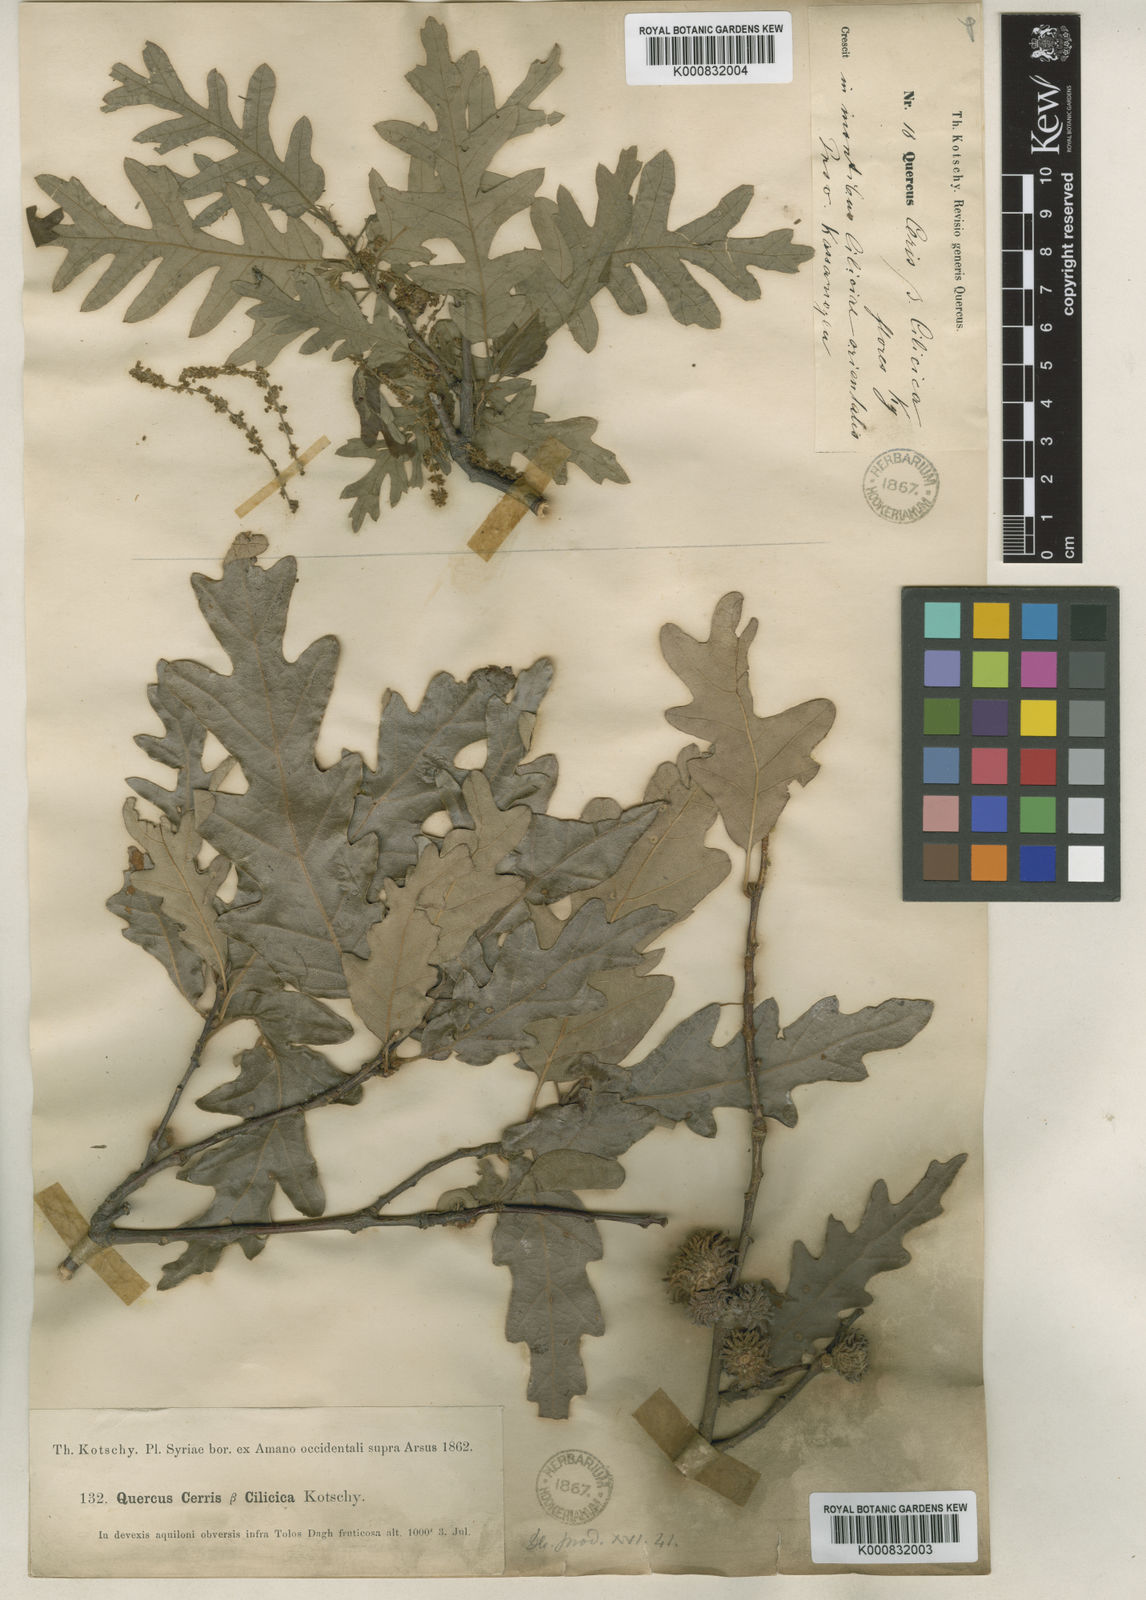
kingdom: Plantae
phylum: Tracheophyta
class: Magnoliopsida
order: Fagales
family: Fagaceae
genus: Quercus
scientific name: Quercus cerris
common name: Turkey oak
